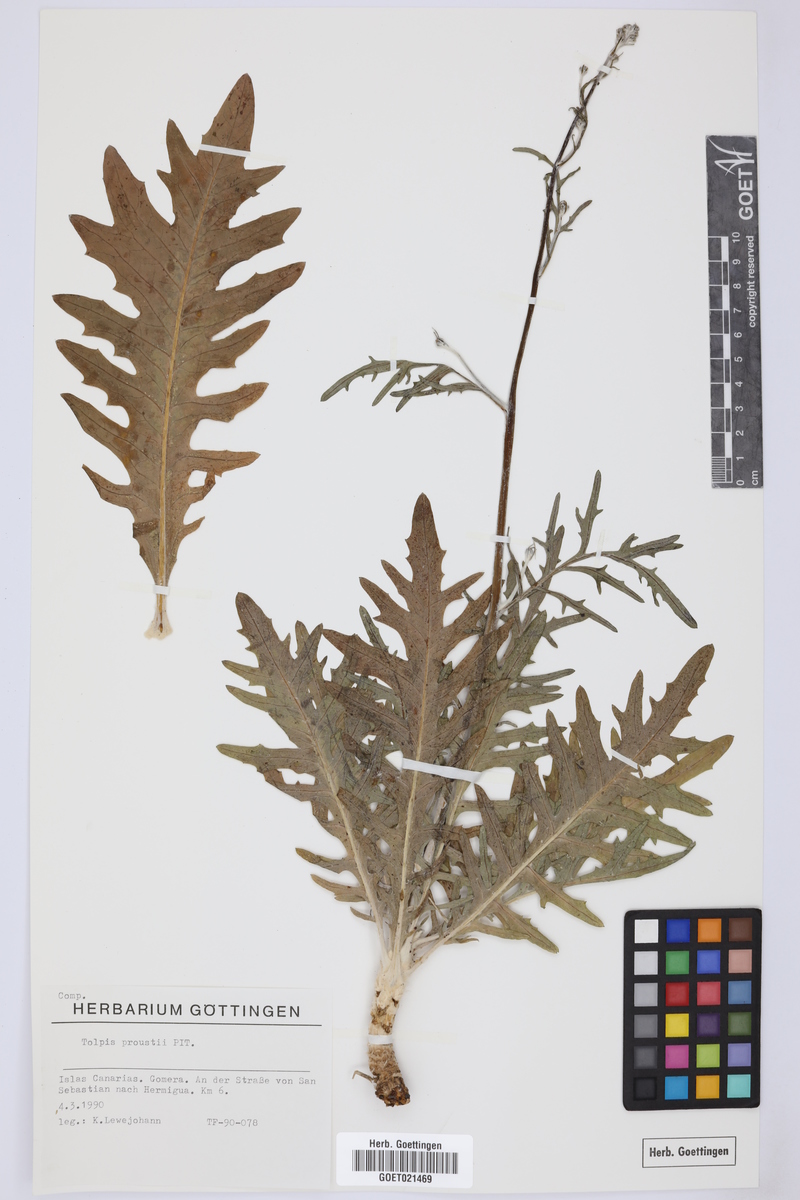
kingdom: Plantae
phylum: Tracheophyta
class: Magnoliopsida
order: Asterales
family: Asteraceae
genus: Tolpis
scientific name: Tolpis proustii
